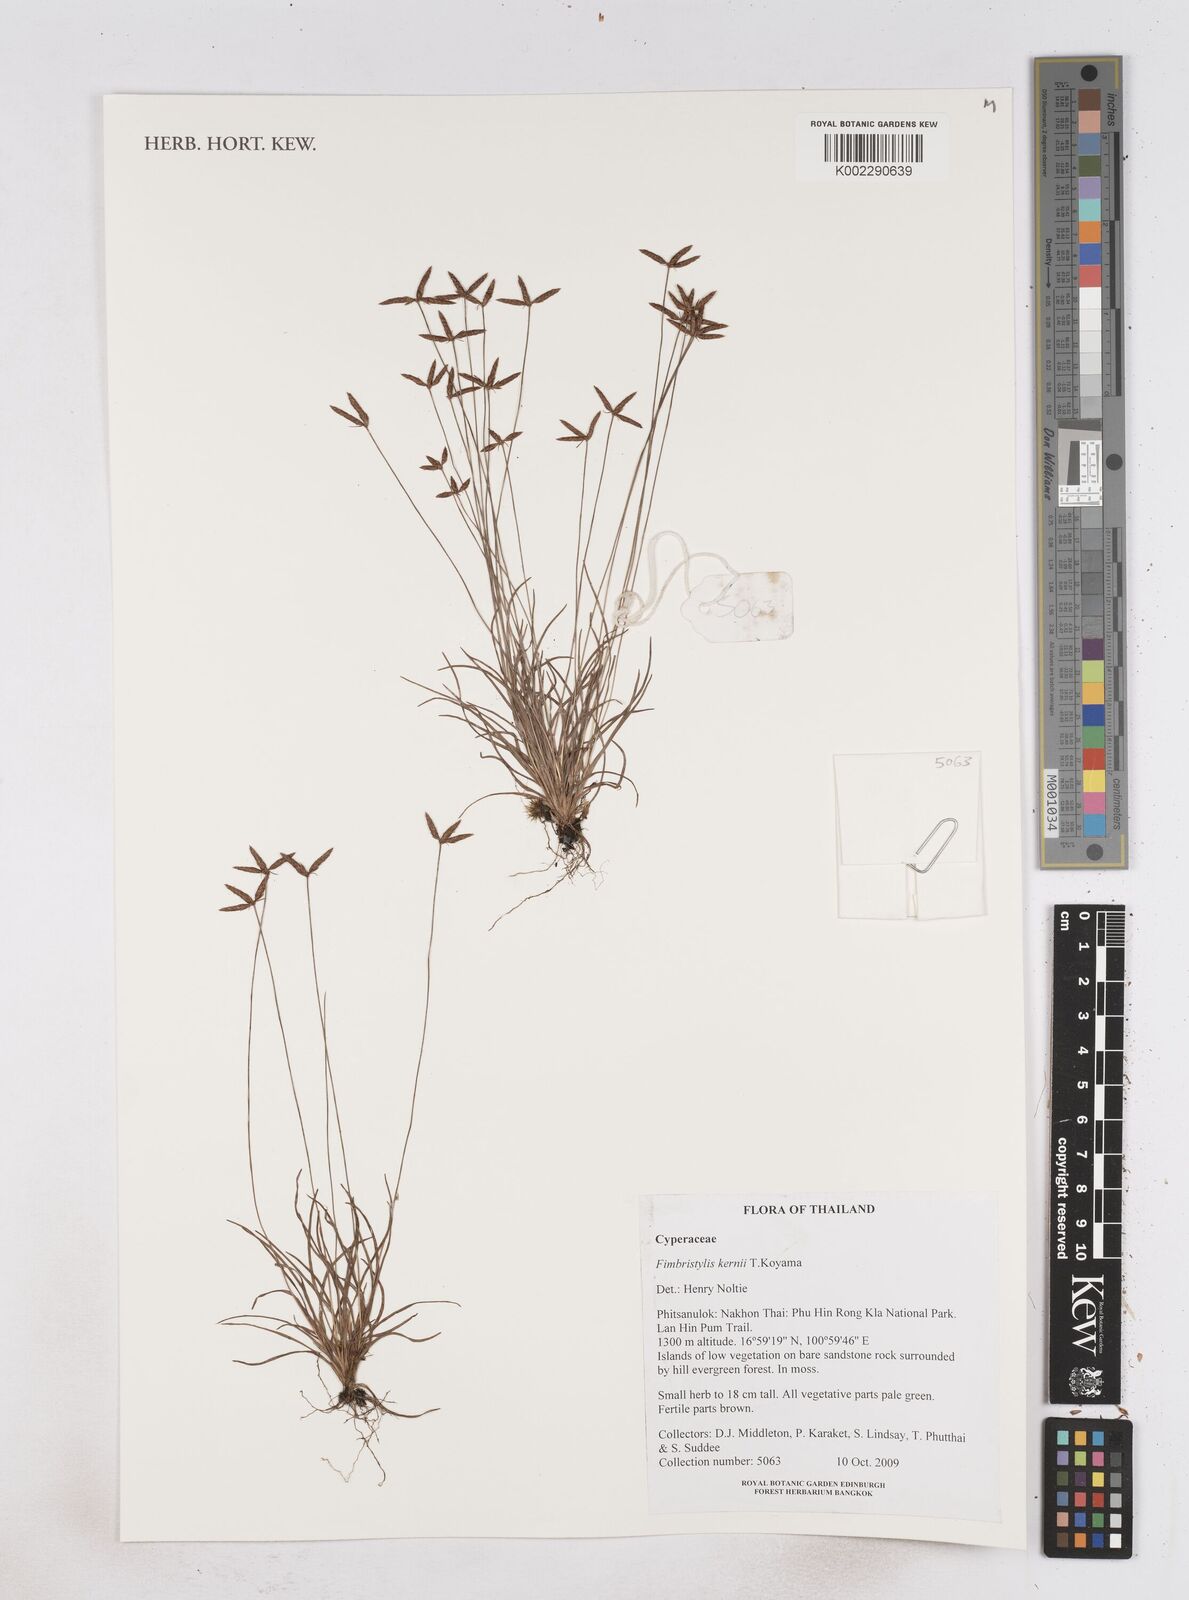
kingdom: Plantae
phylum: Tracheophyta
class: Liliopsida
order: Poales
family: Cyperaceae
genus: Fimbristylis
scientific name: Fimbristylis kernii
